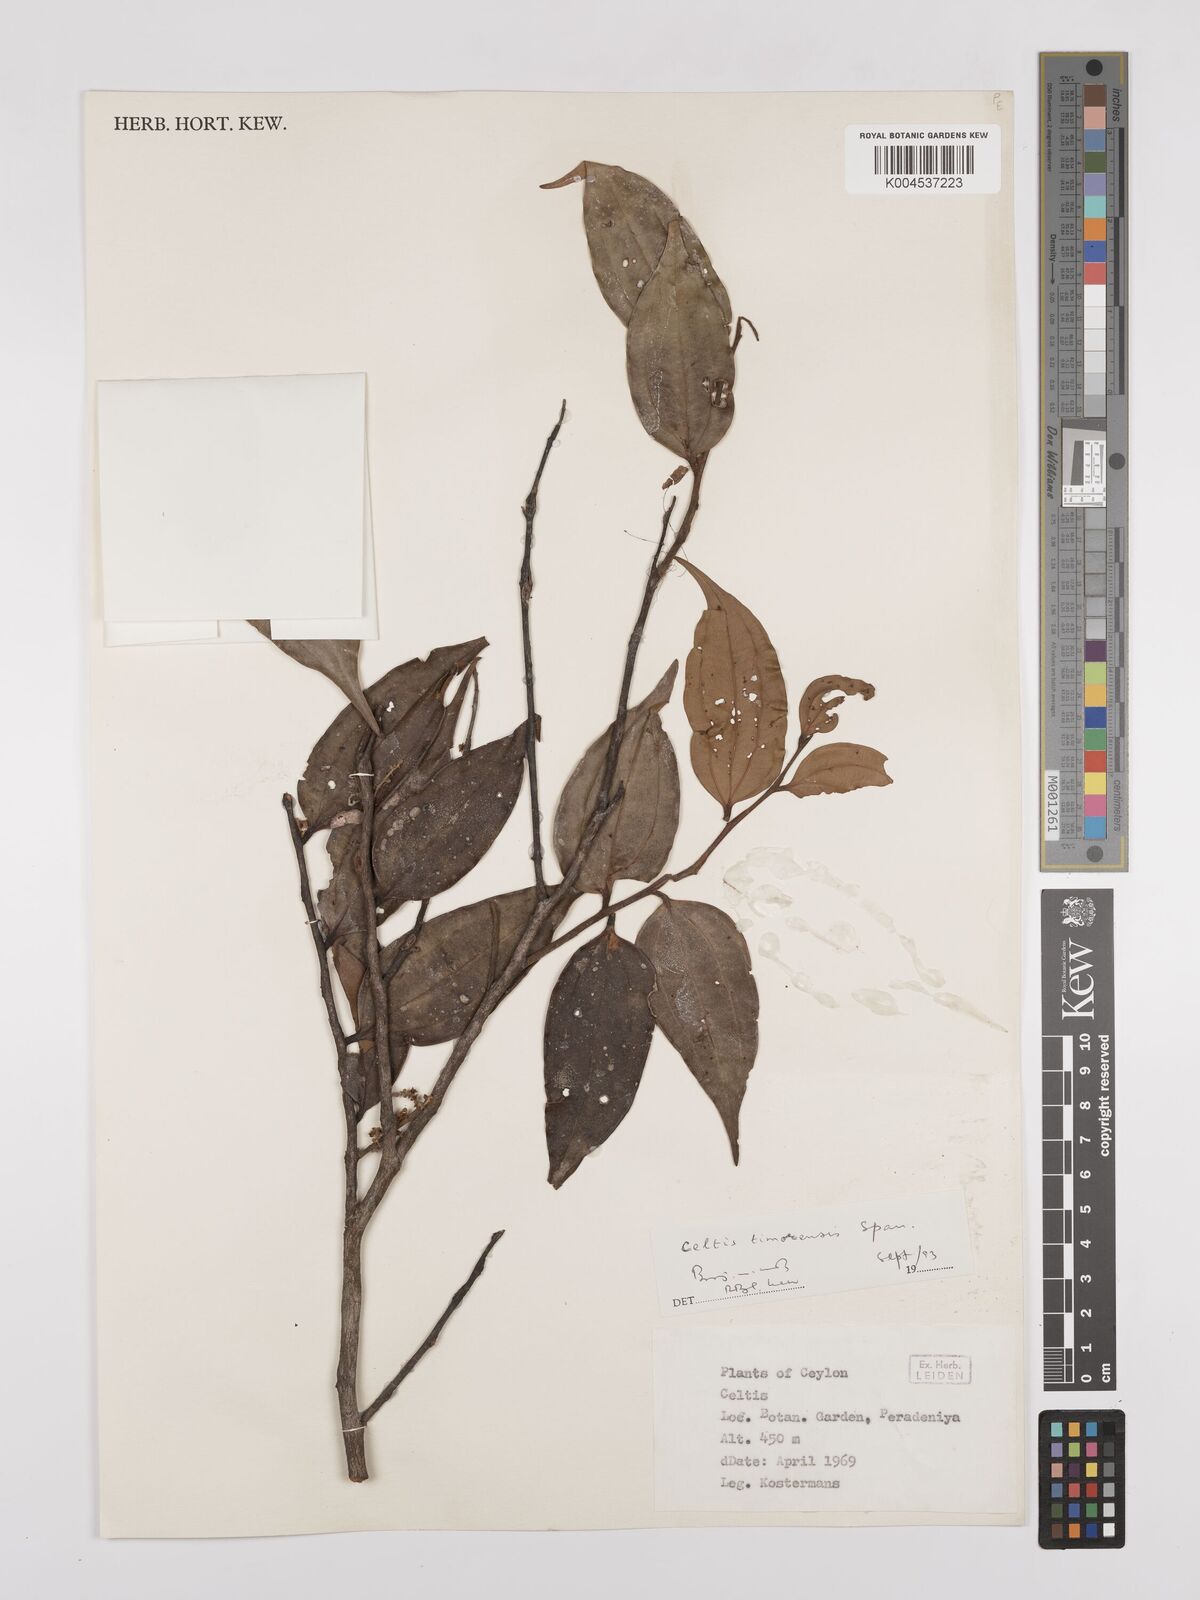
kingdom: Plantae
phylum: Tracheophyta
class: Magnoliopsida
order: Rosales
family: Cannabaceae
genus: Celtis
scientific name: Celtis timorensis
